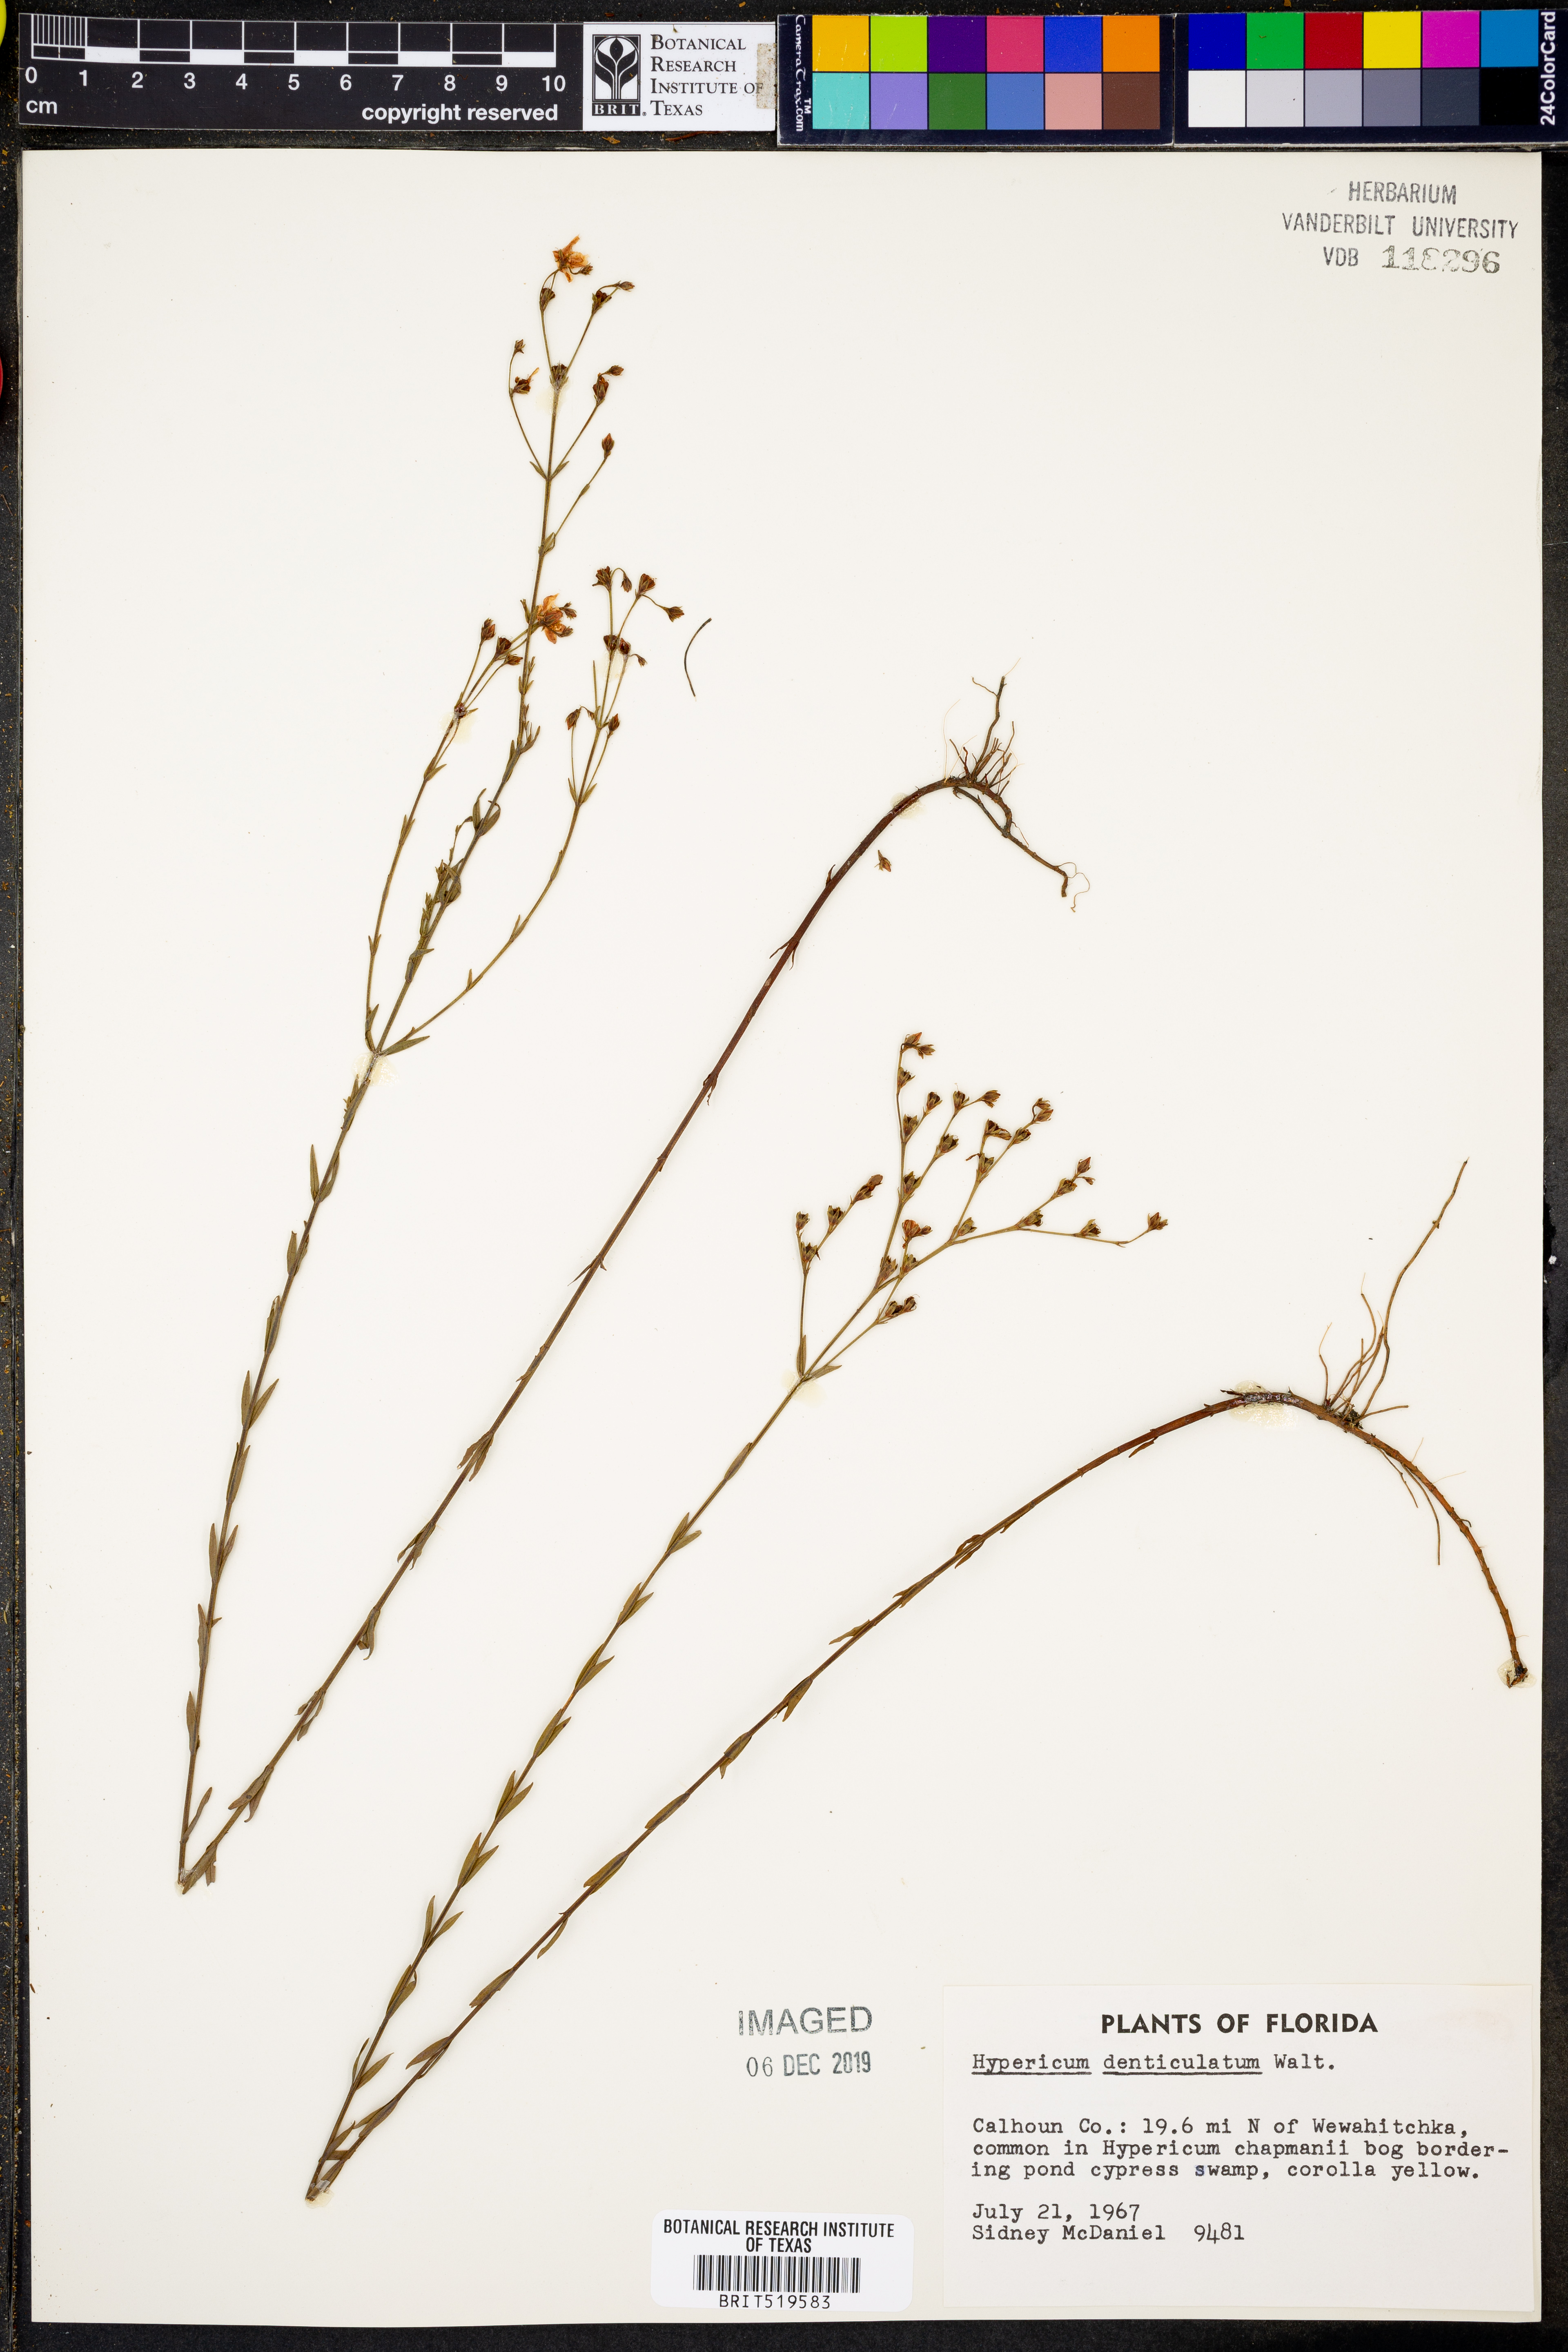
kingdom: Plantae
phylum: Tracheophyta
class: Magnoliopsida
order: Malpighiales
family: Hypericaceae
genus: Hypericum
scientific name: Hypericum denticulatum
